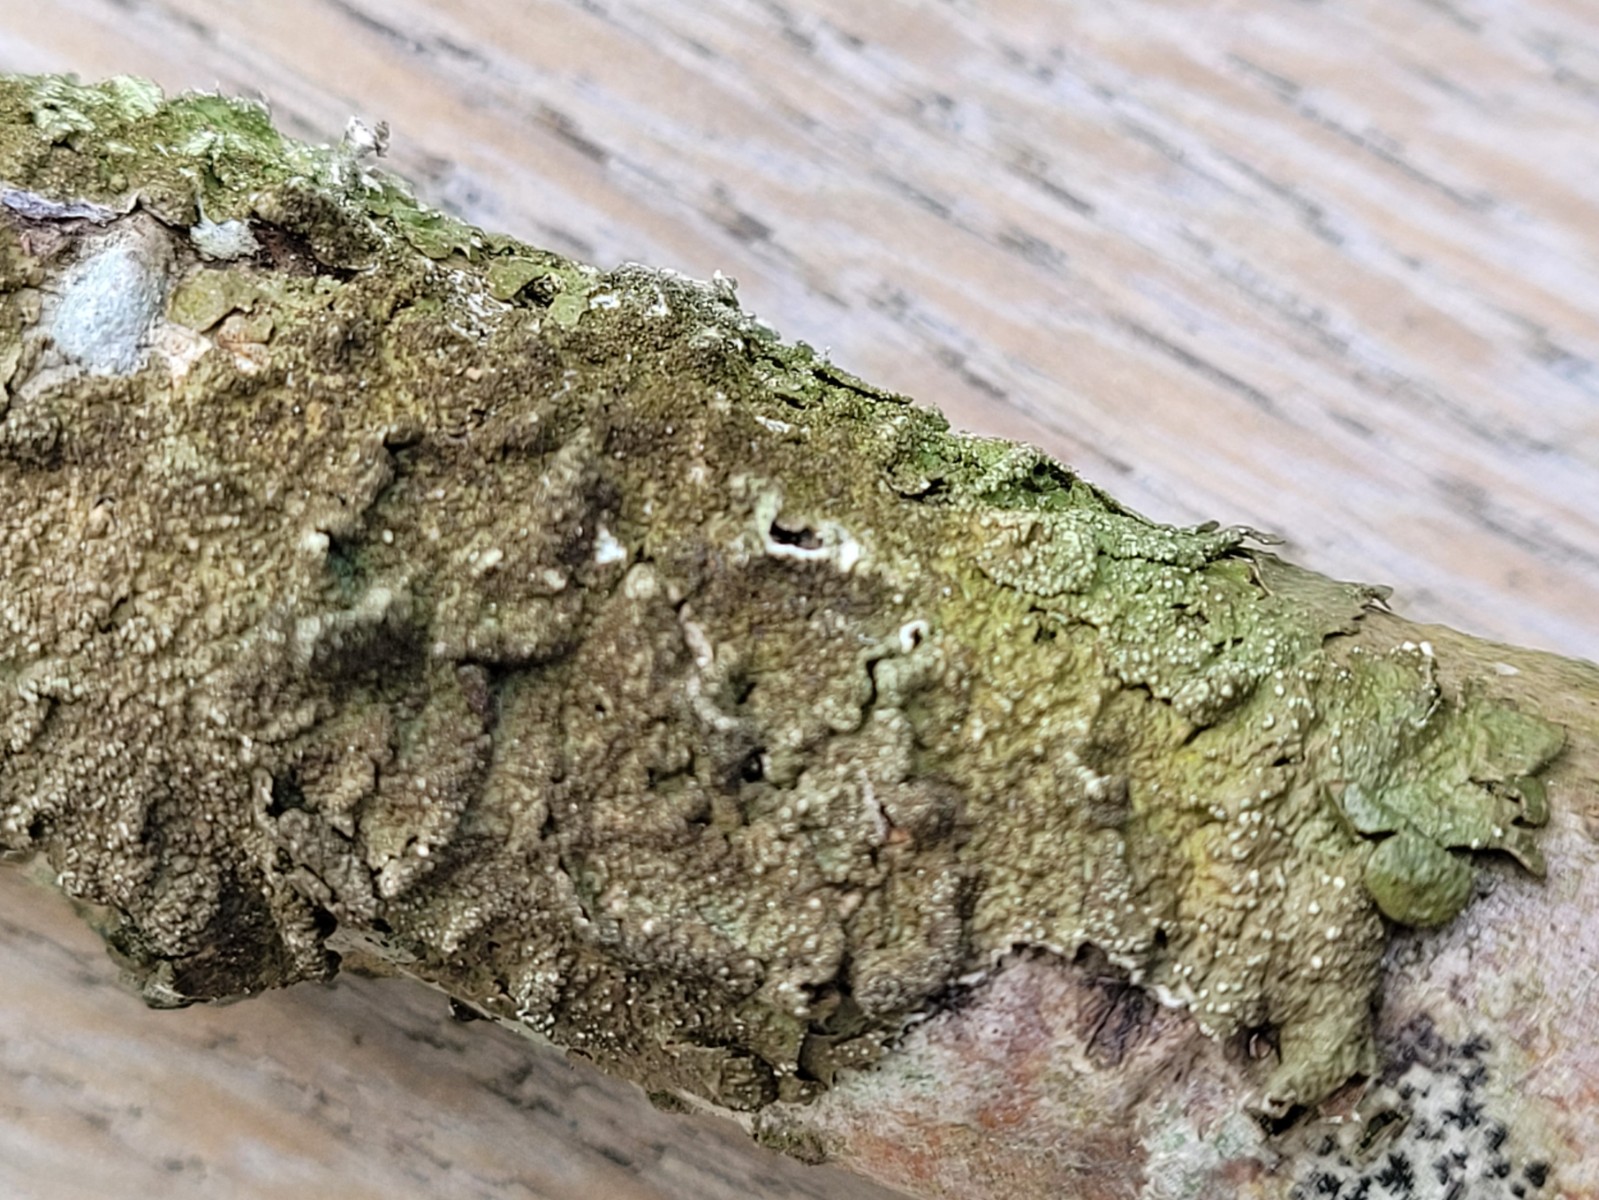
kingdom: Fungi
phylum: Ascomycota
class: Lecanoromycetes
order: Lecanorales
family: Parmeliaceae
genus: Melanelixia
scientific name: Melanelixia subaurifera
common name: guldpudret skållav
